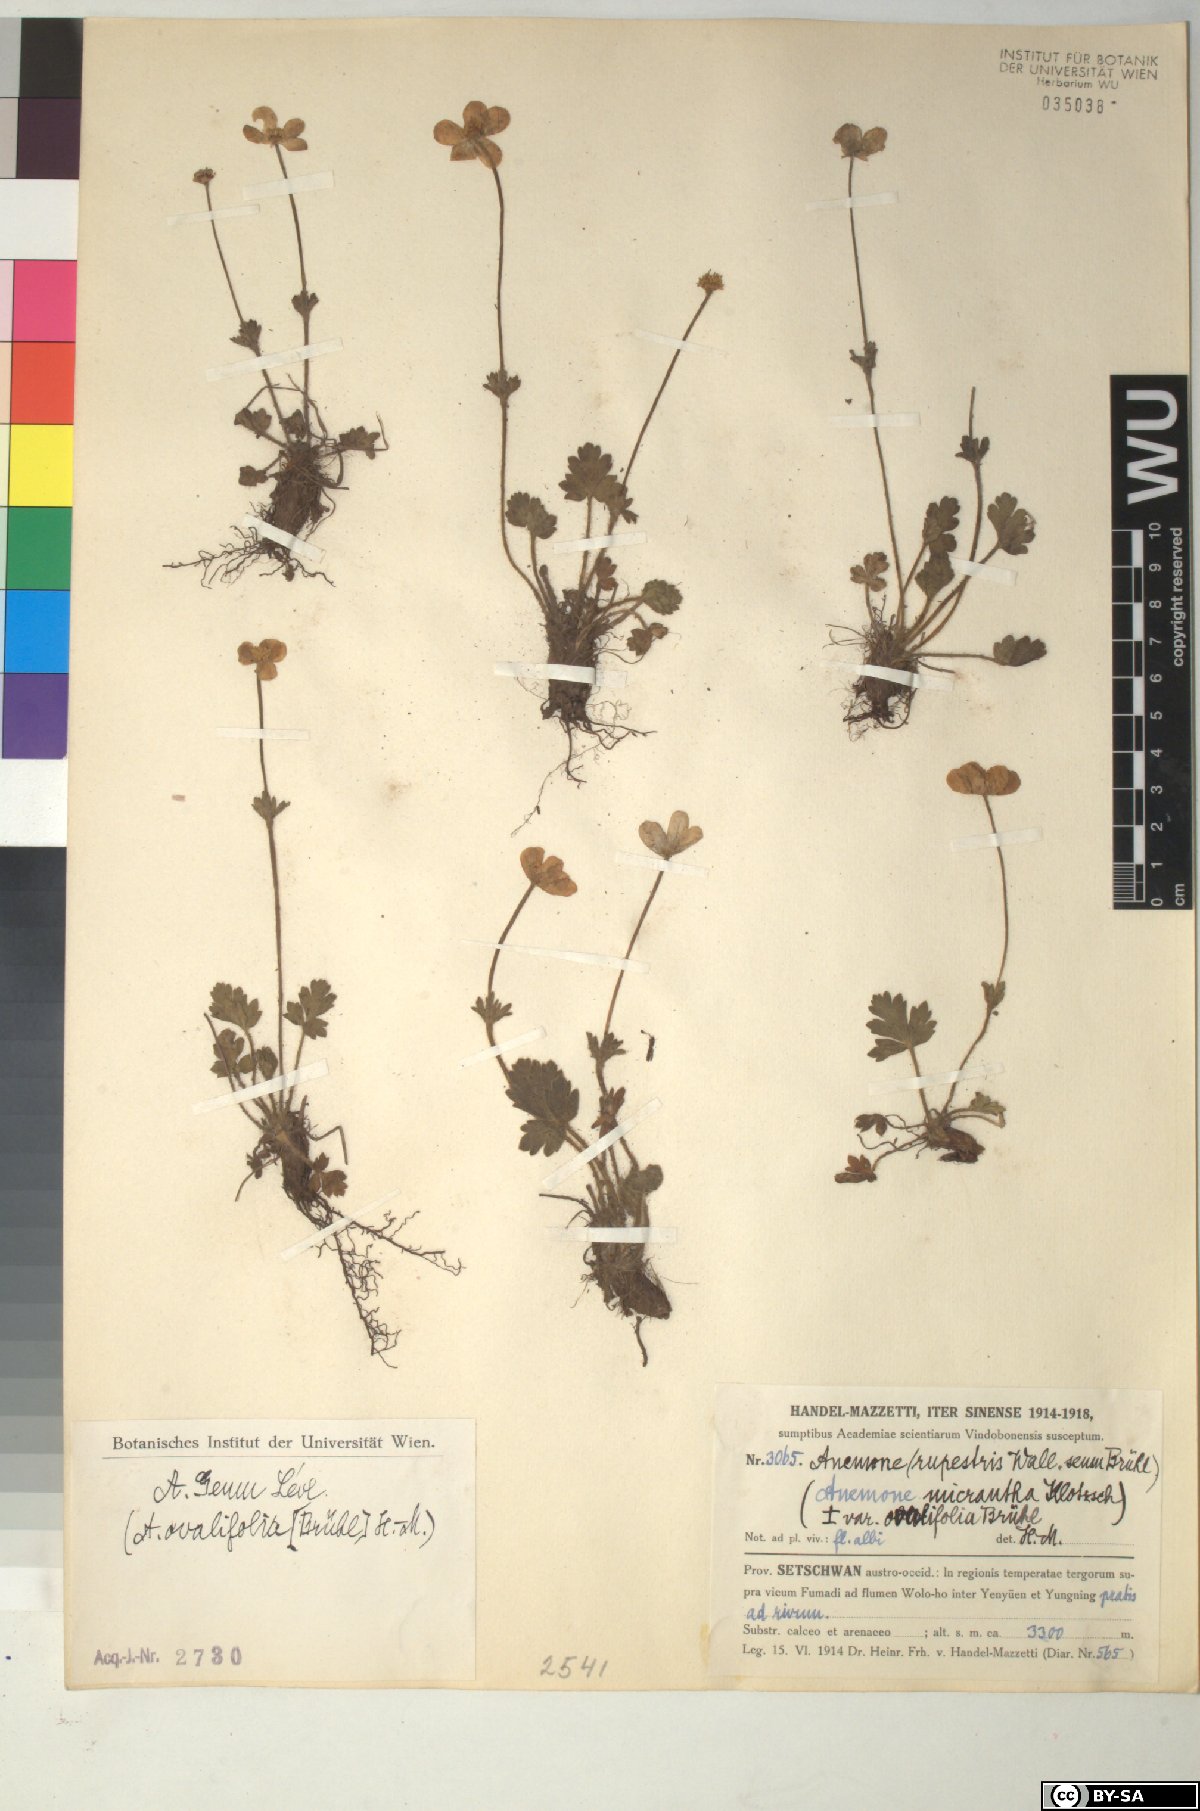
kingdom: Plantae
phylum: Tracheophyta
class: Magnoliopsida
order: Ranunculales
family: Ranunculaceae
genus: Anemonastrum
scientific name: Anemonastrum geum
